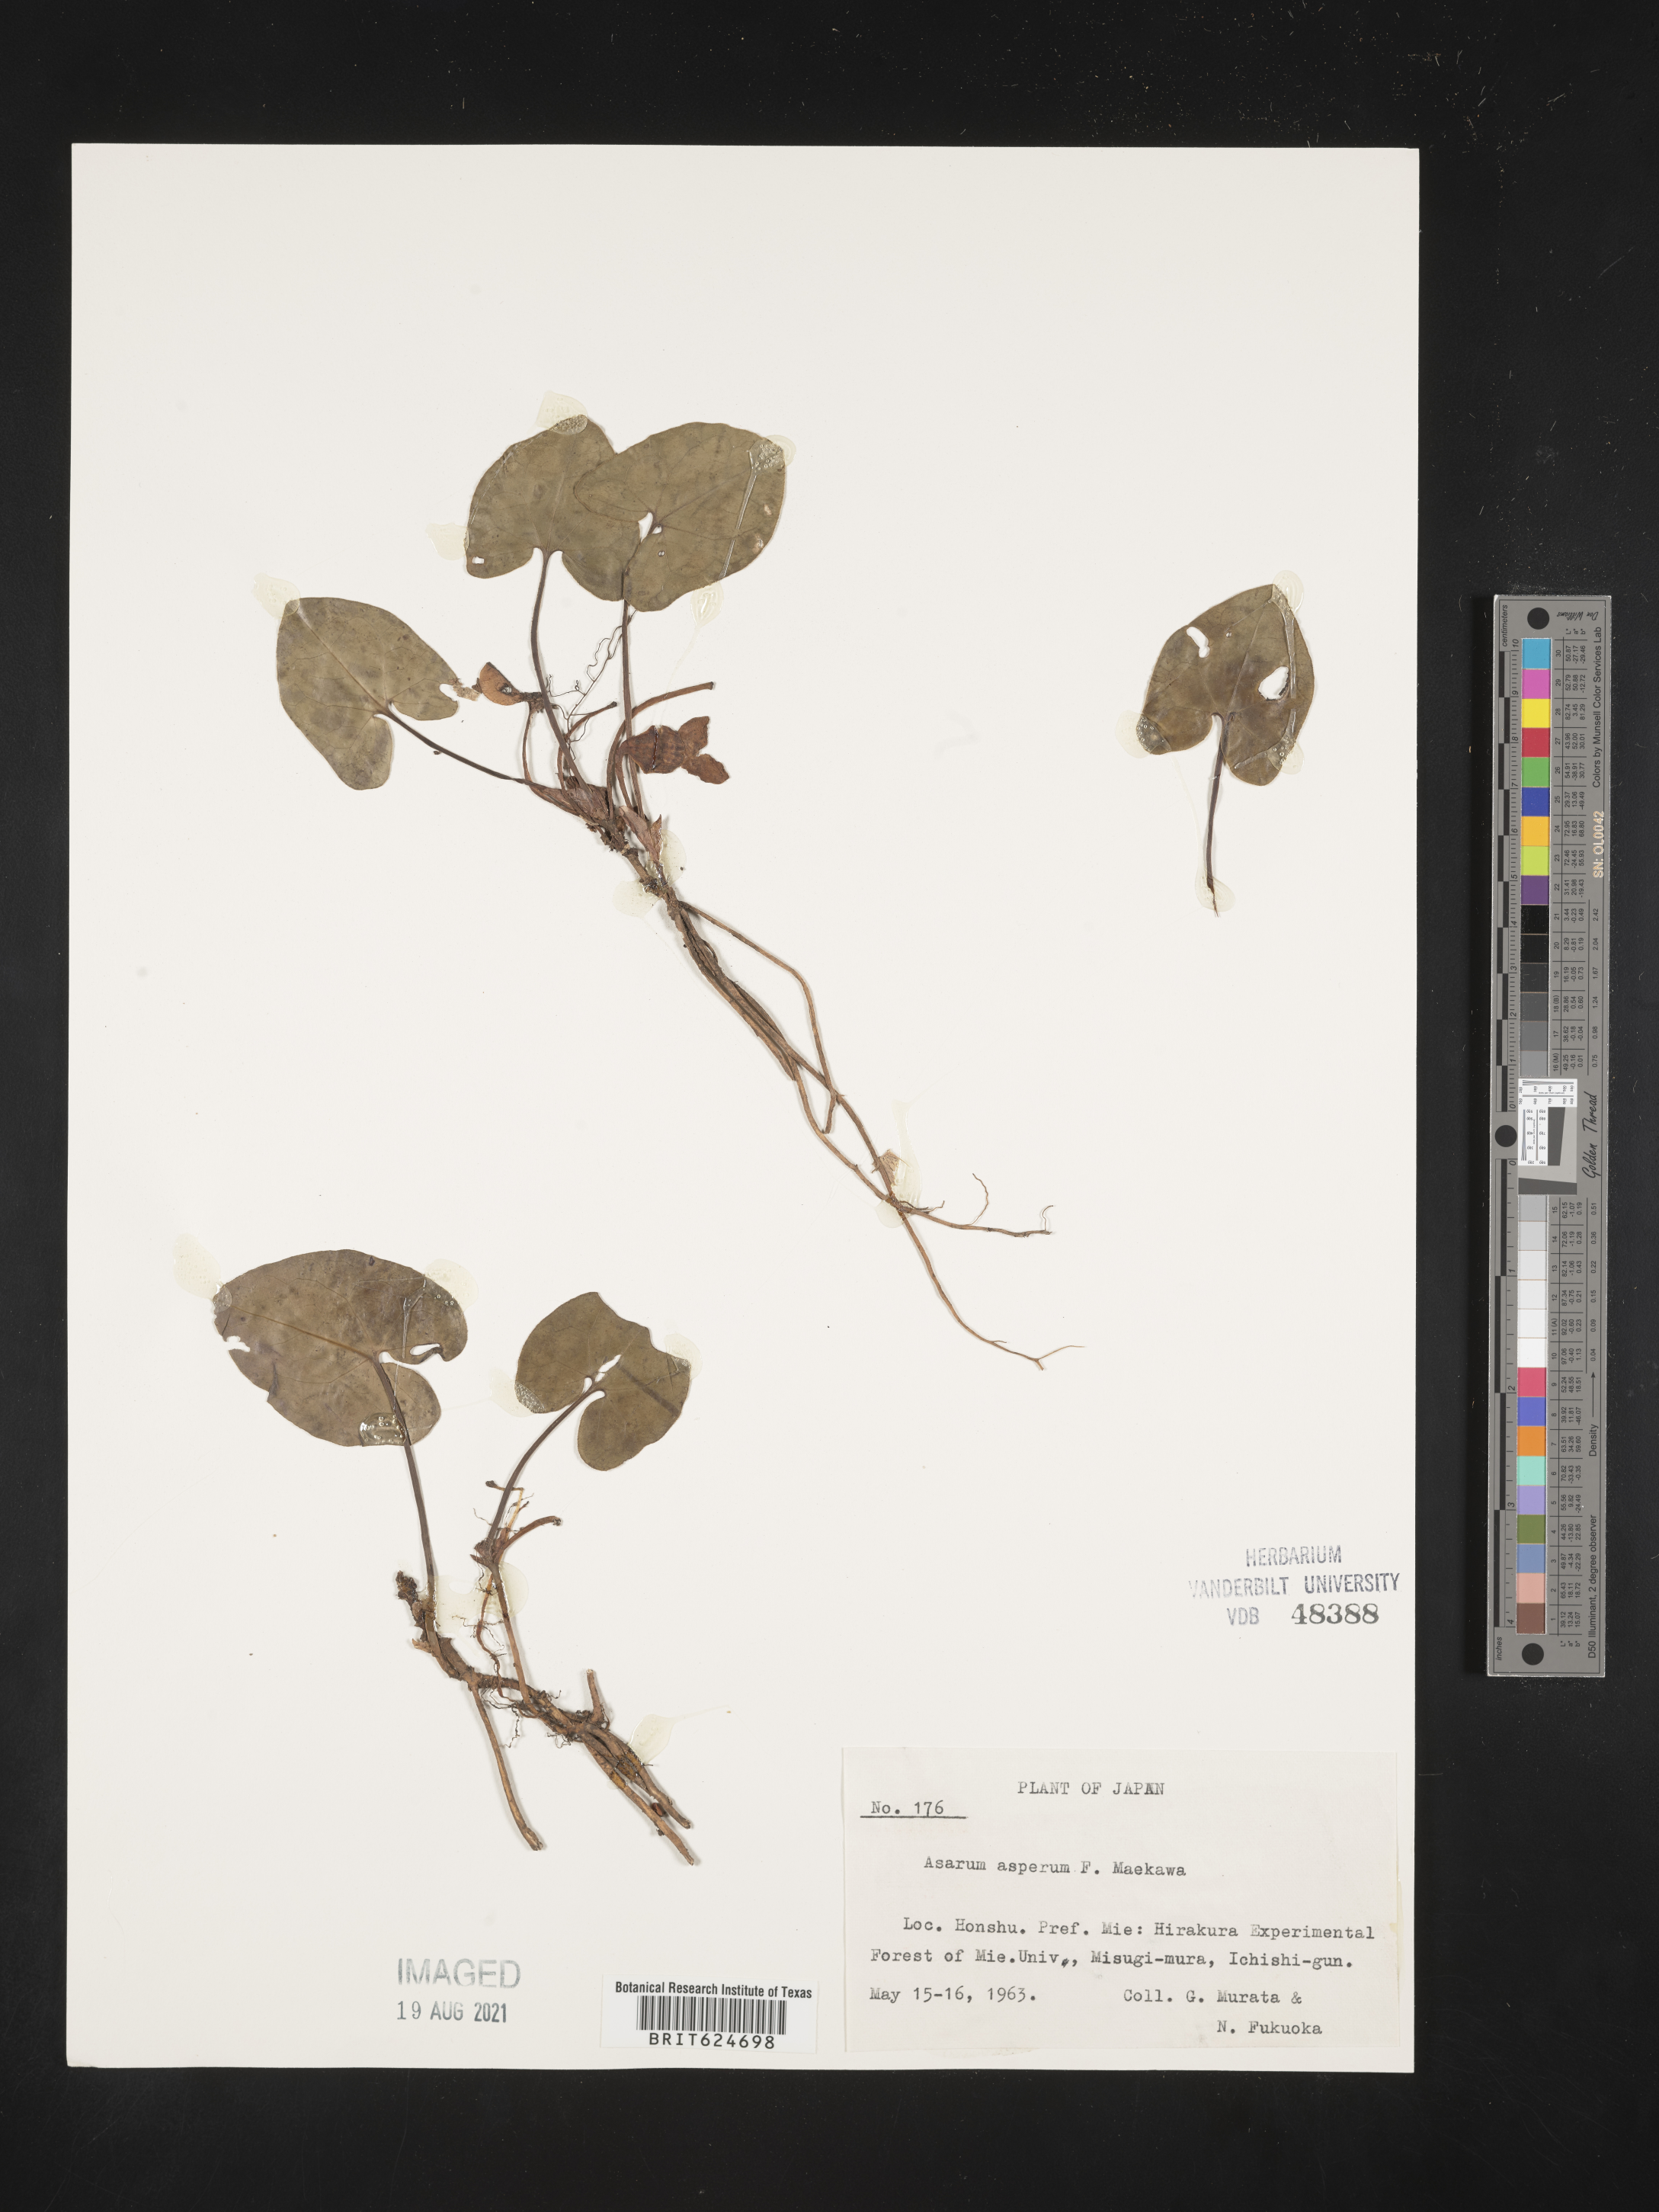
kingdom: Plantae
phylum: Tracheophyta
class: Magnoliopsida
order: Piperales
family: Aristolochiaceae
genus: Asarum
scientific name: Asarum asperum
